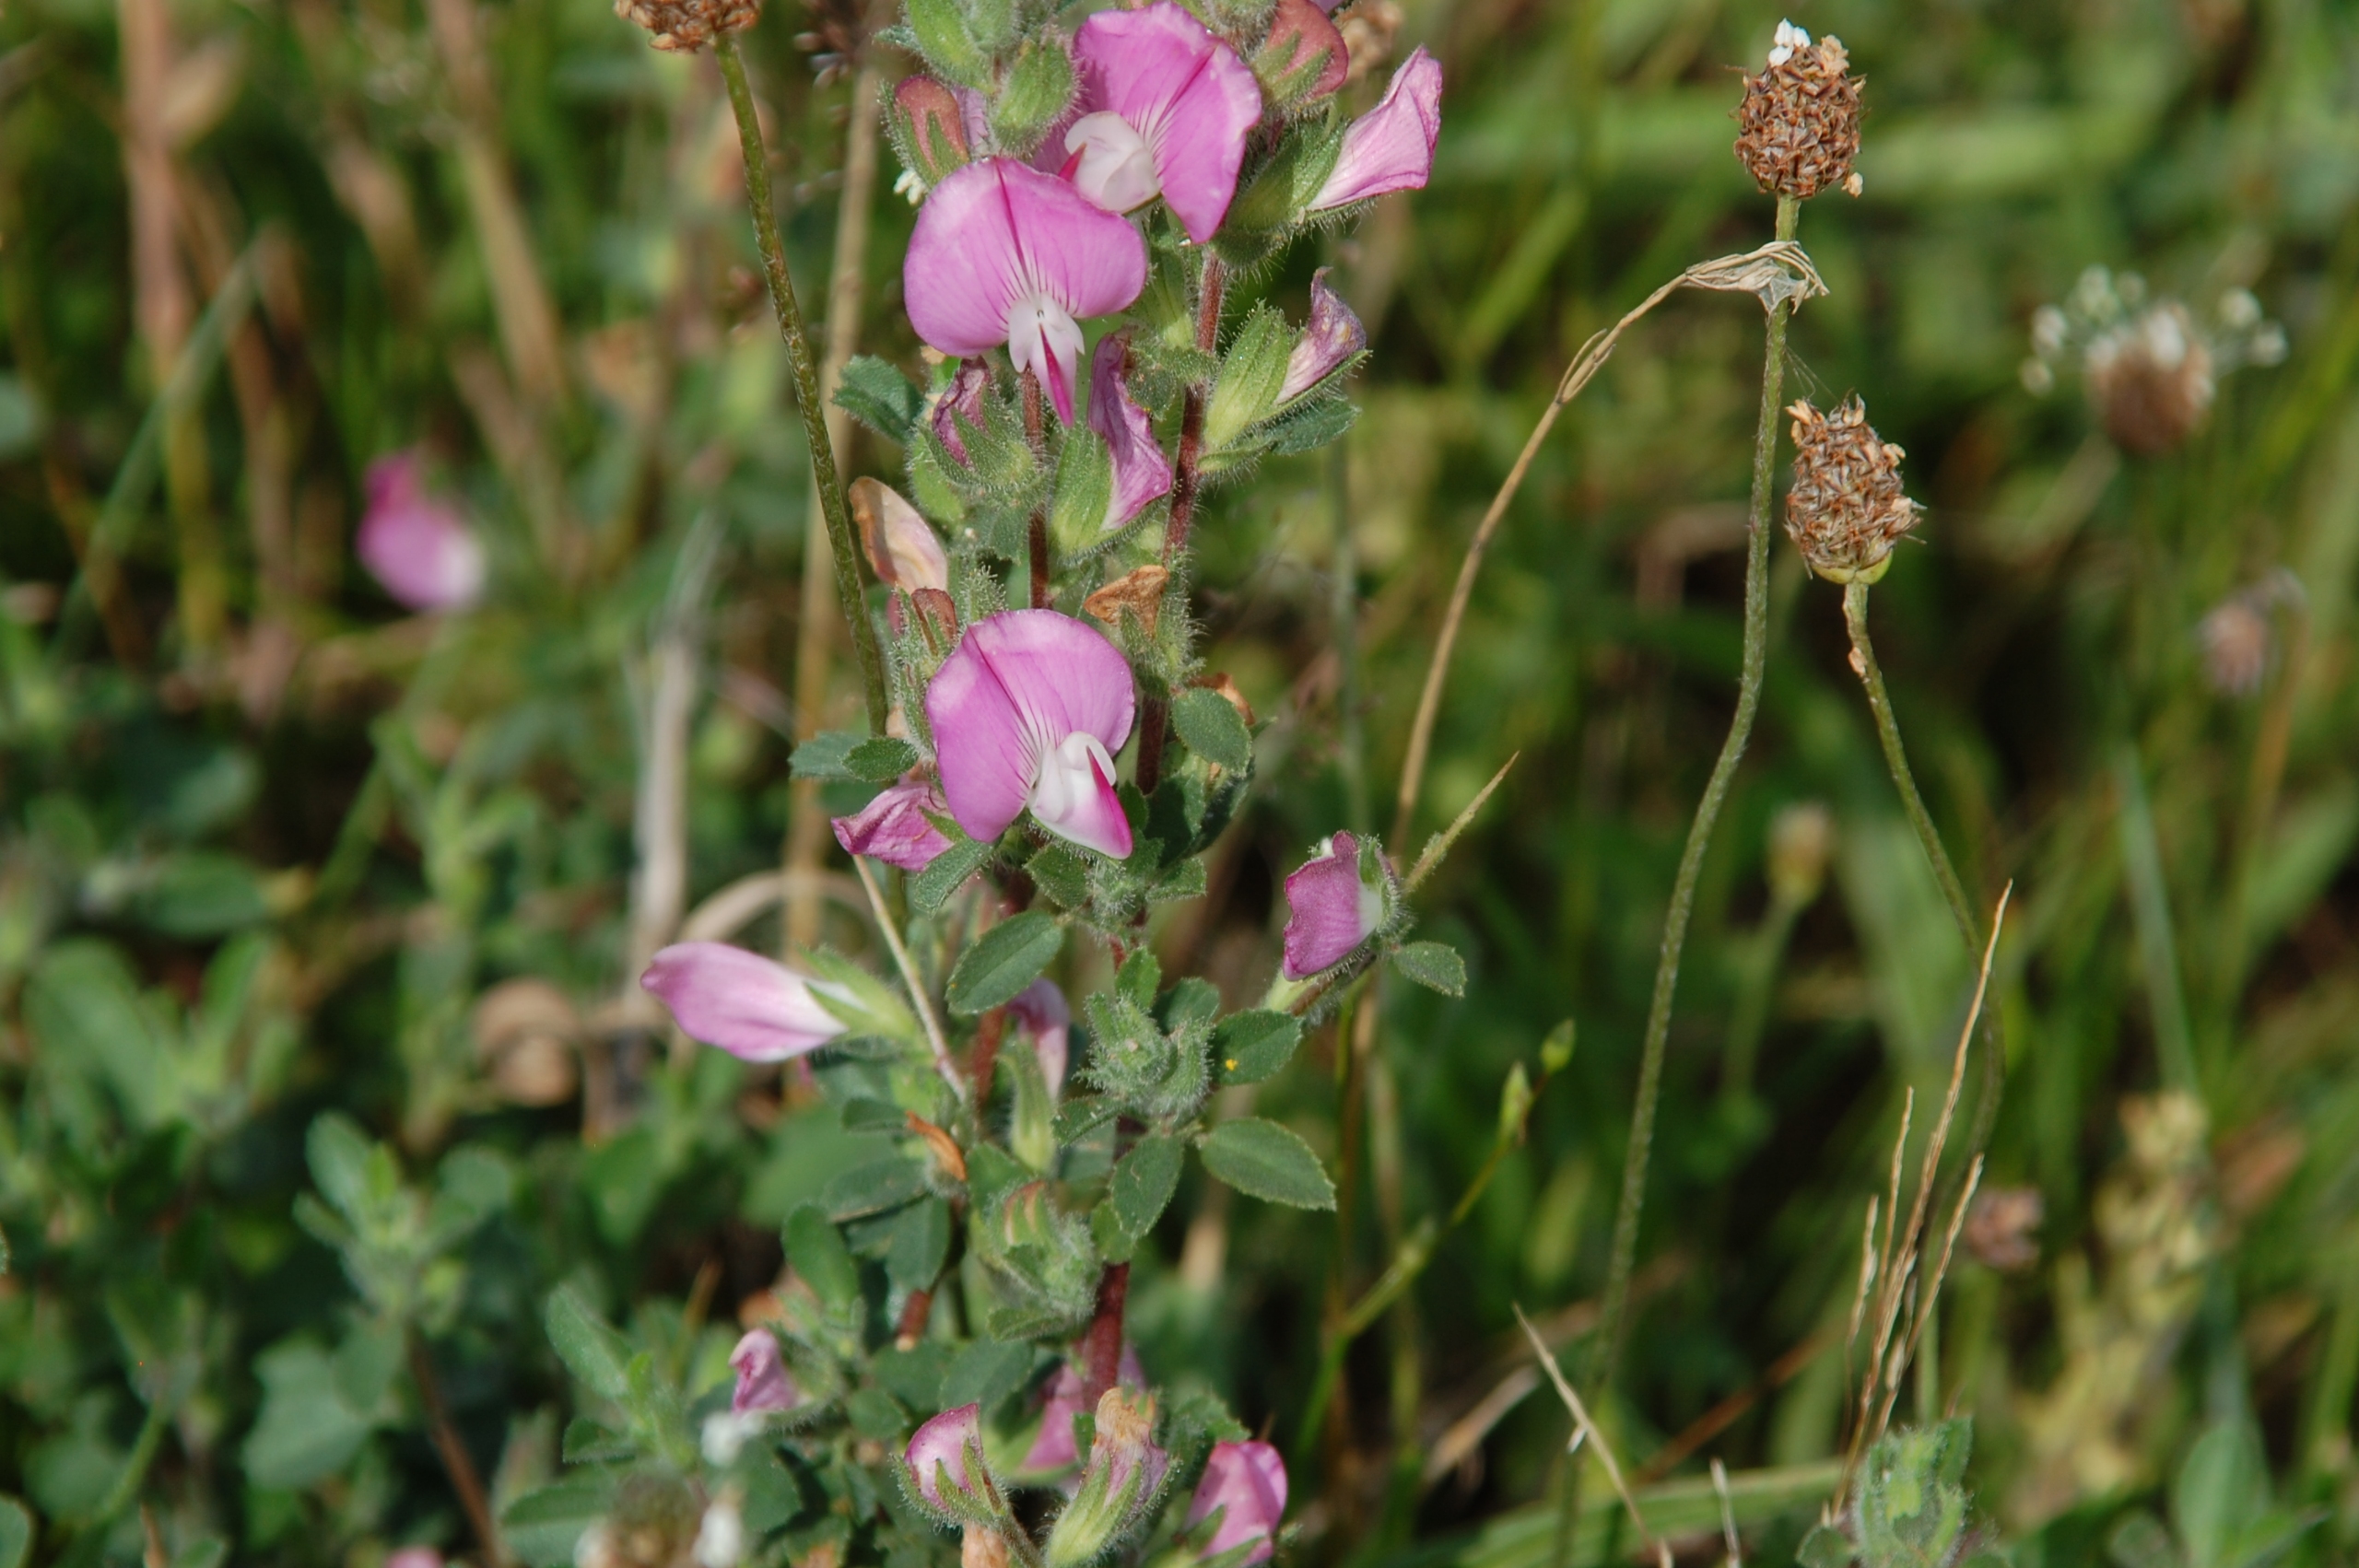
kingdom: Plantae
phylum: Tracheophyta
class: Magnoliopsida
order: Fabales
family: Fabaceae
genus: Ononis
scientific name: Ononis spinosa
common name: Mark-krageklo
